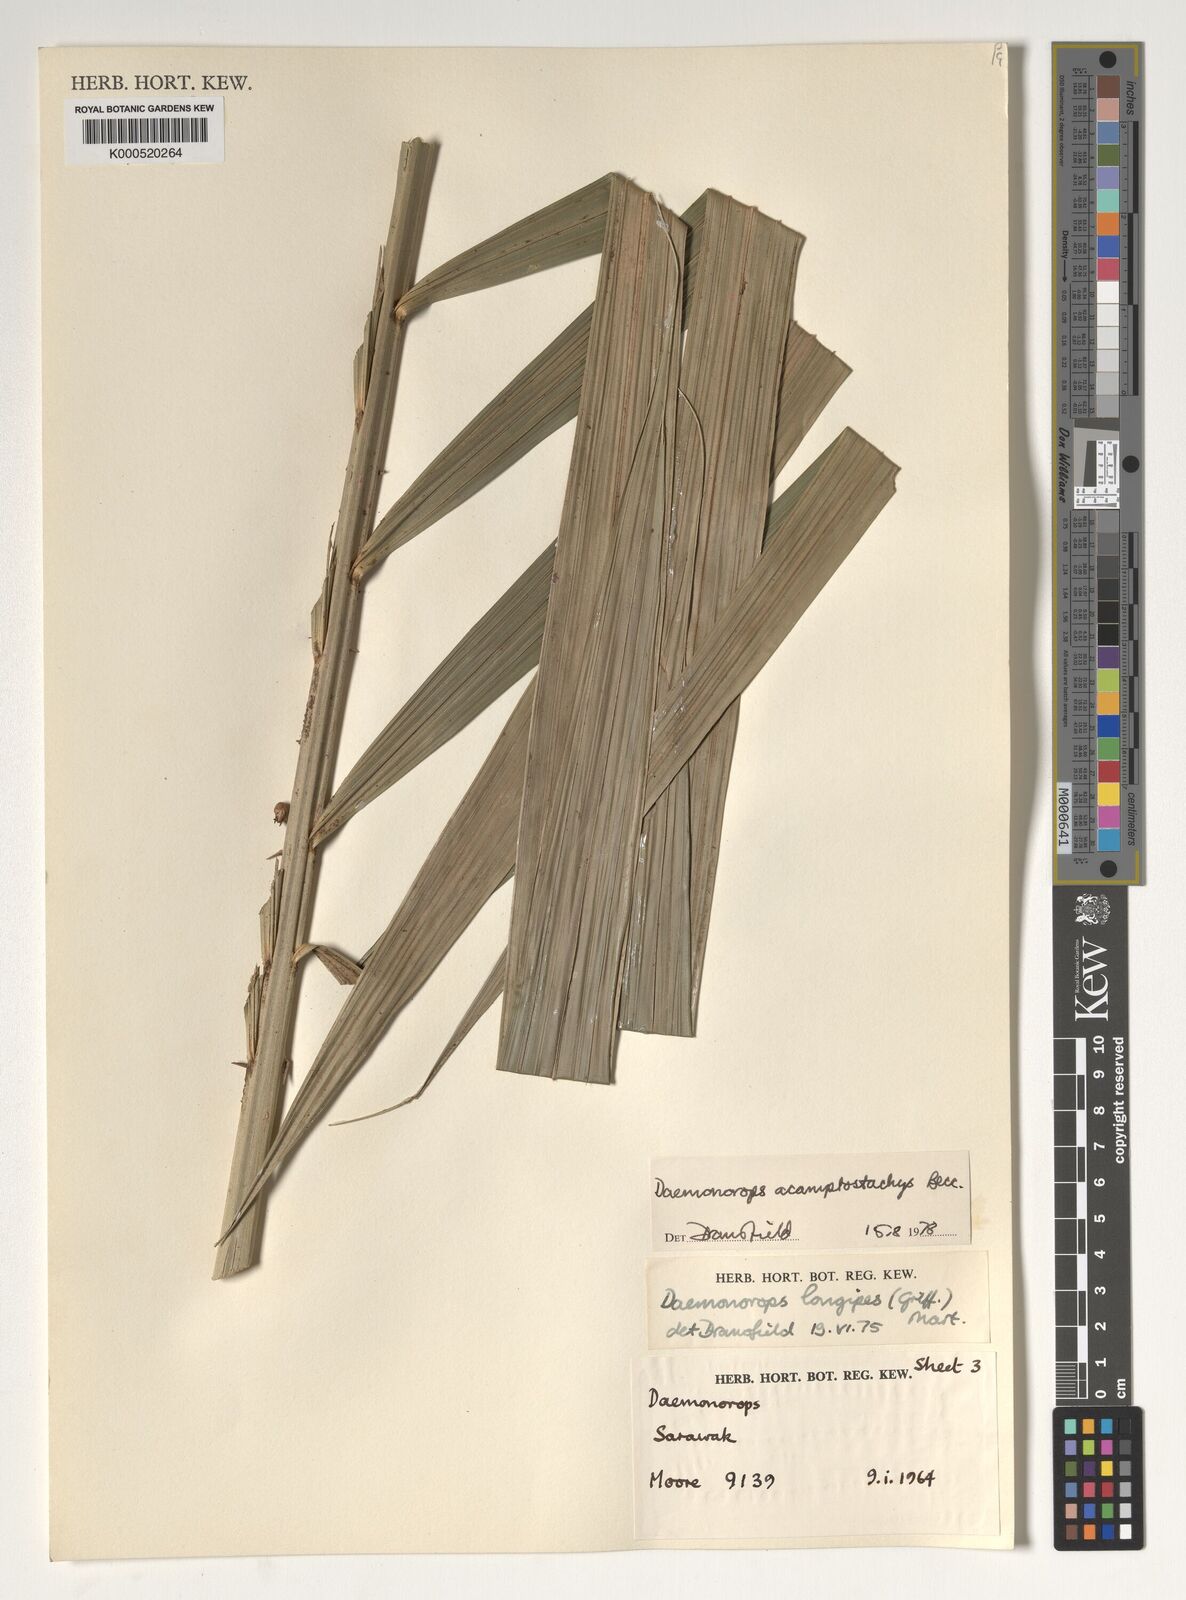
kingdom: Plantae
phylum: Tracheophyta
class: Liliopsida
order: Arecales
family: Arecaceae
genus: Calamus
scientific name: Calamus acamptostachys
